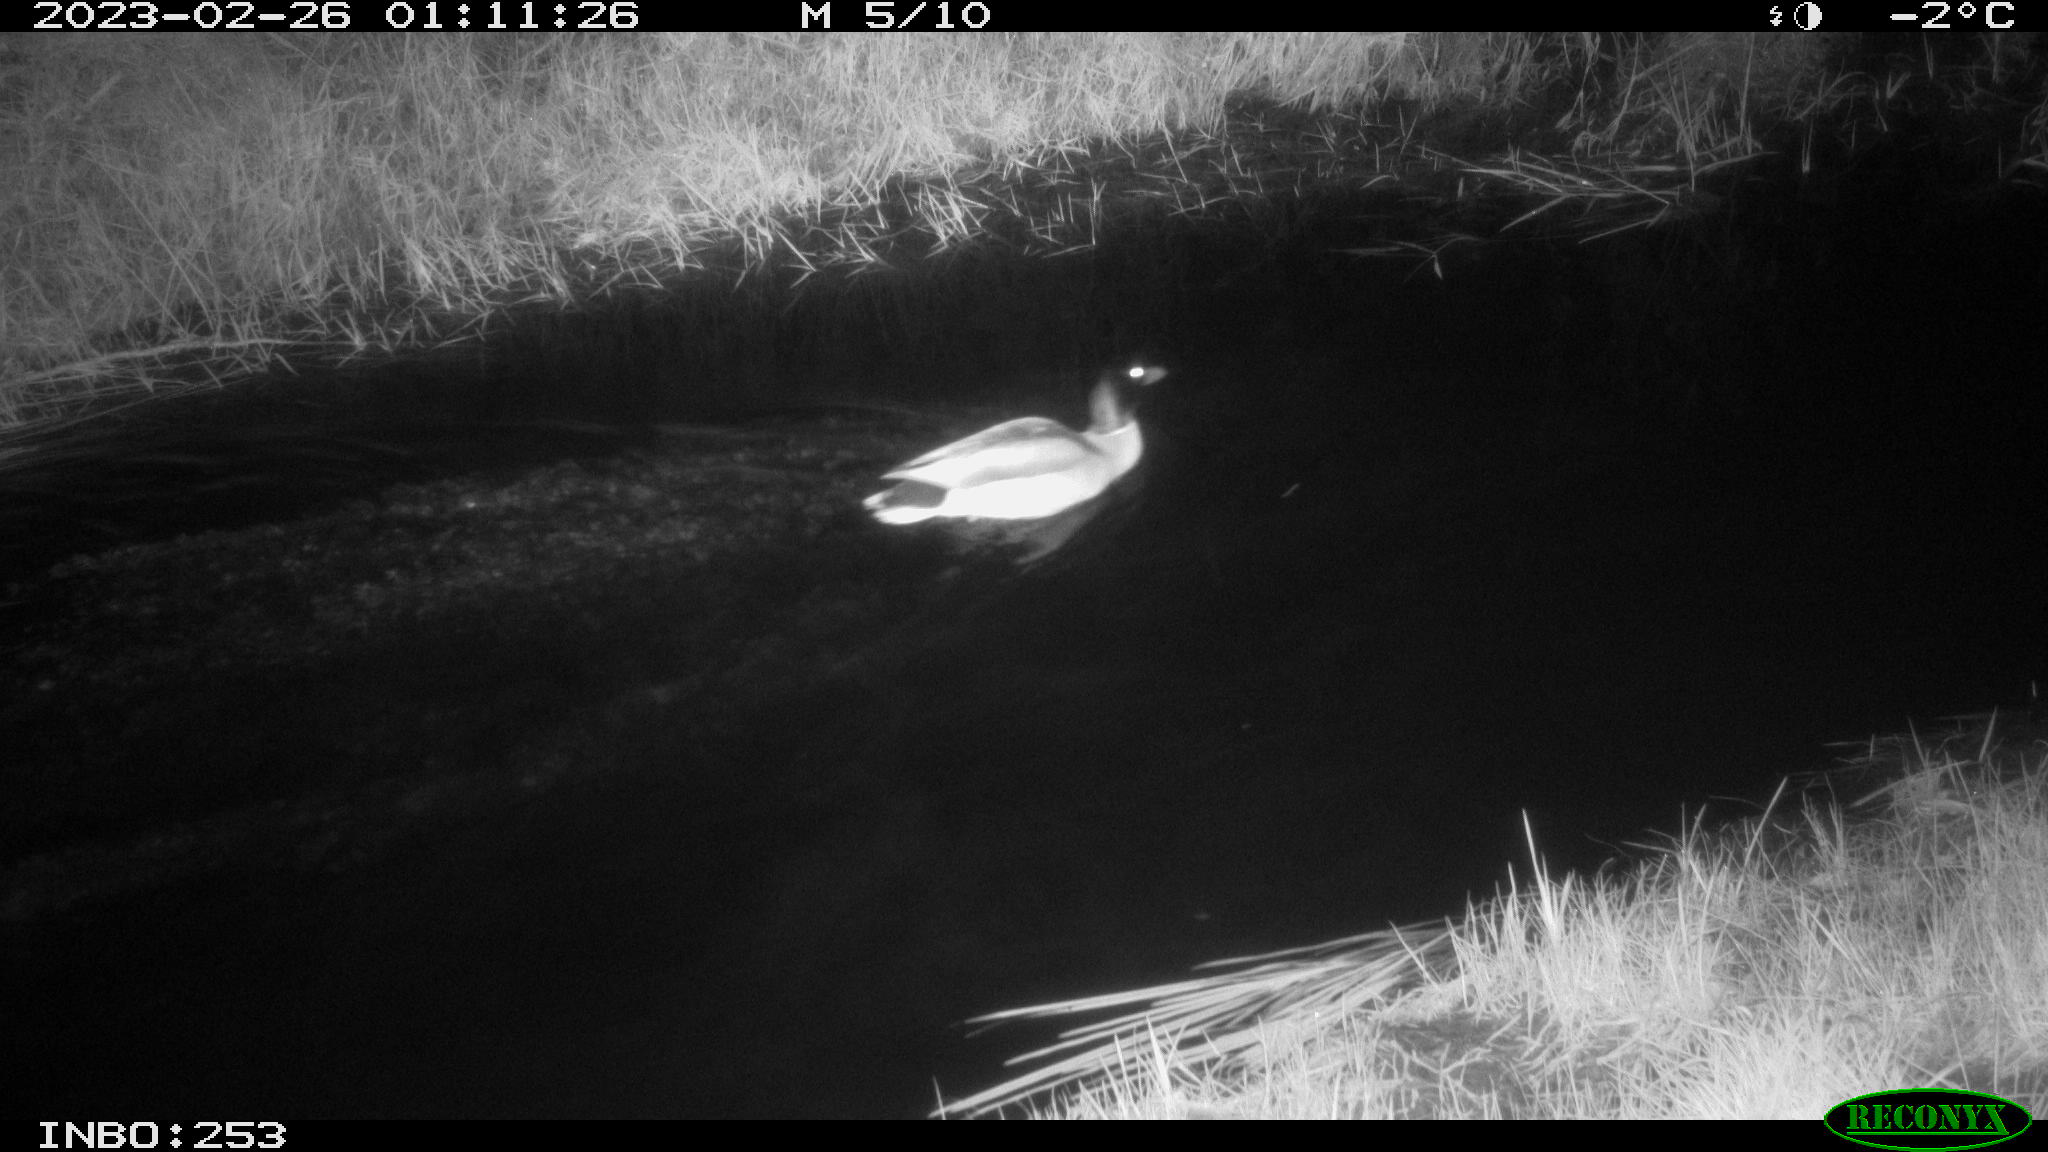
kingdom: Animalia
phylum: Chordata
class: Aves
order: Anseriformes
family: Anatidae
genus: Anas
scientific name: Anas
